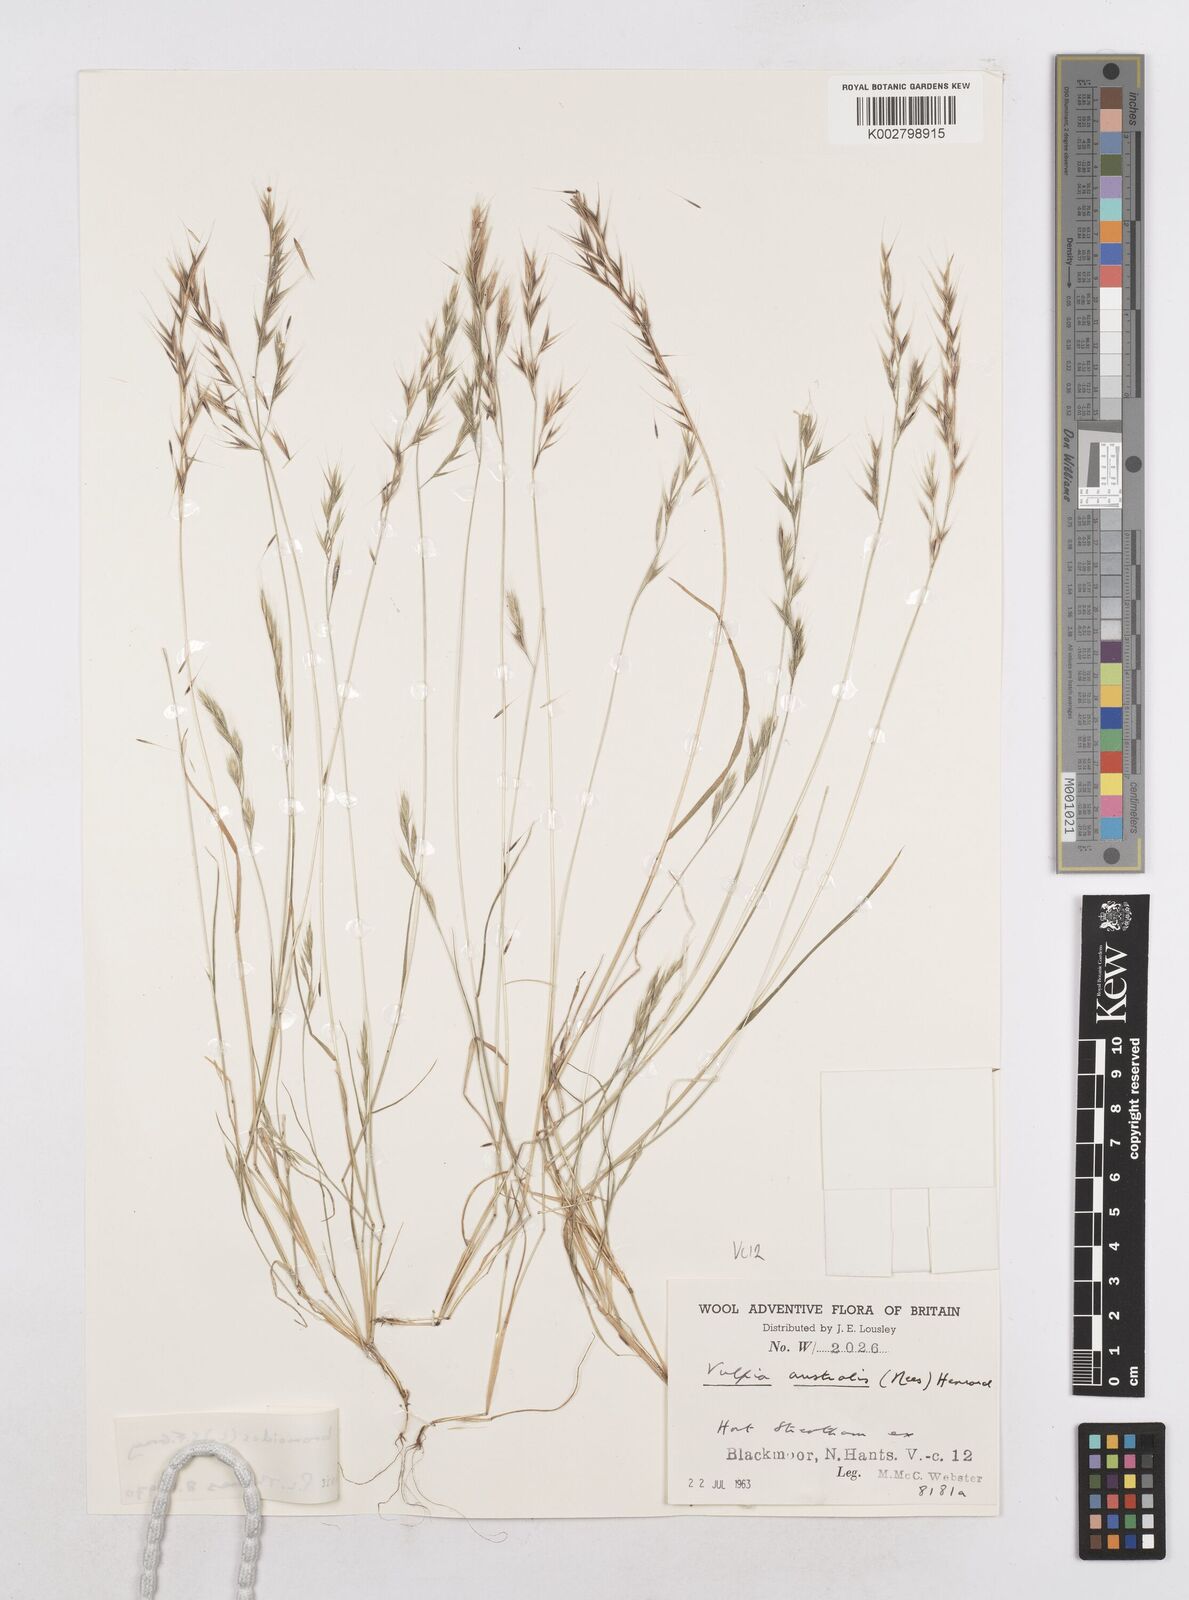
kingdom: Plantae
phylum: Tracheophyta
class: Liliopsida
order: Poales
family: Poaceae
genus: Festuca
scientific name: Festuca bromoides
